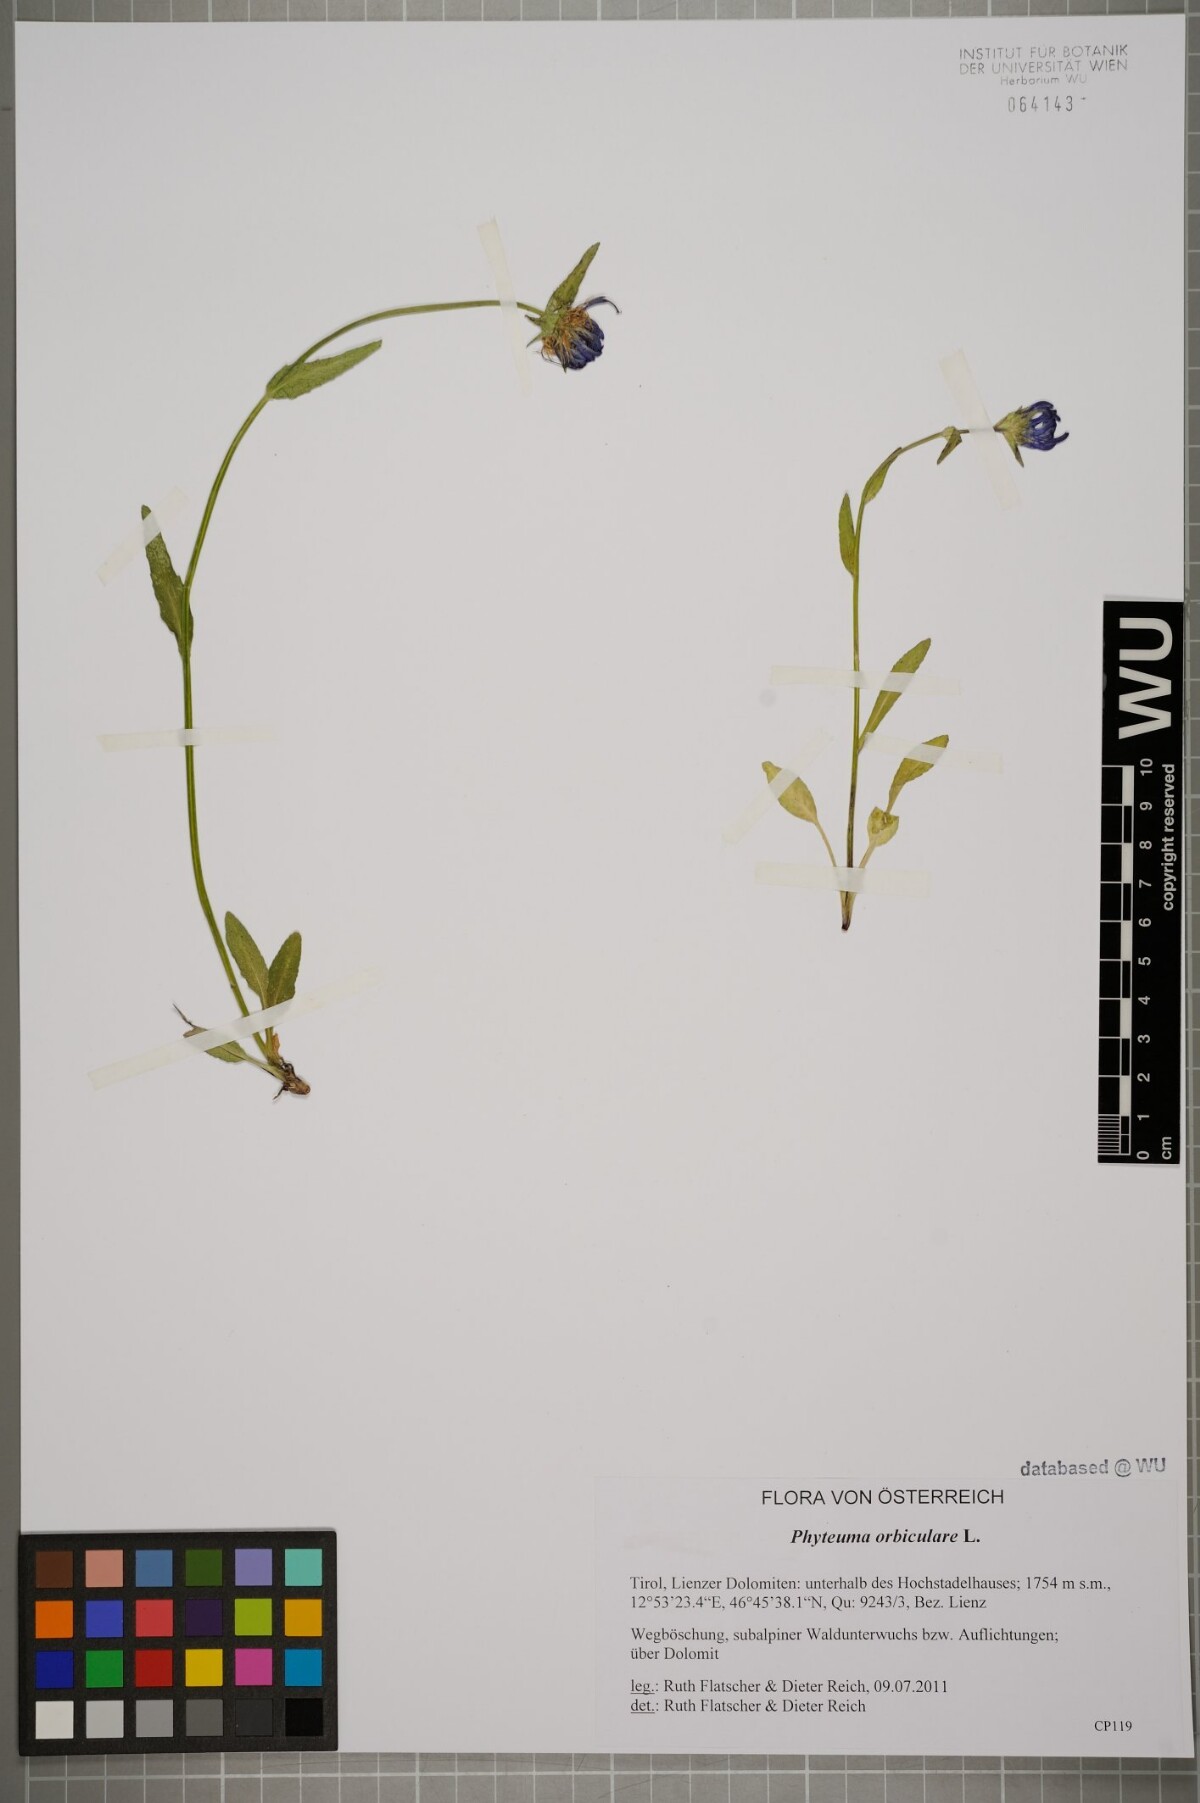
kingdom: Plantae
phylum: Tracheophyta
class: Magnoliopsida
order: Asterales
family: Campanulaceae
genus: Phyteuma
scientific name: Phyteuma orbiculare
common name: Round-headed rampion
